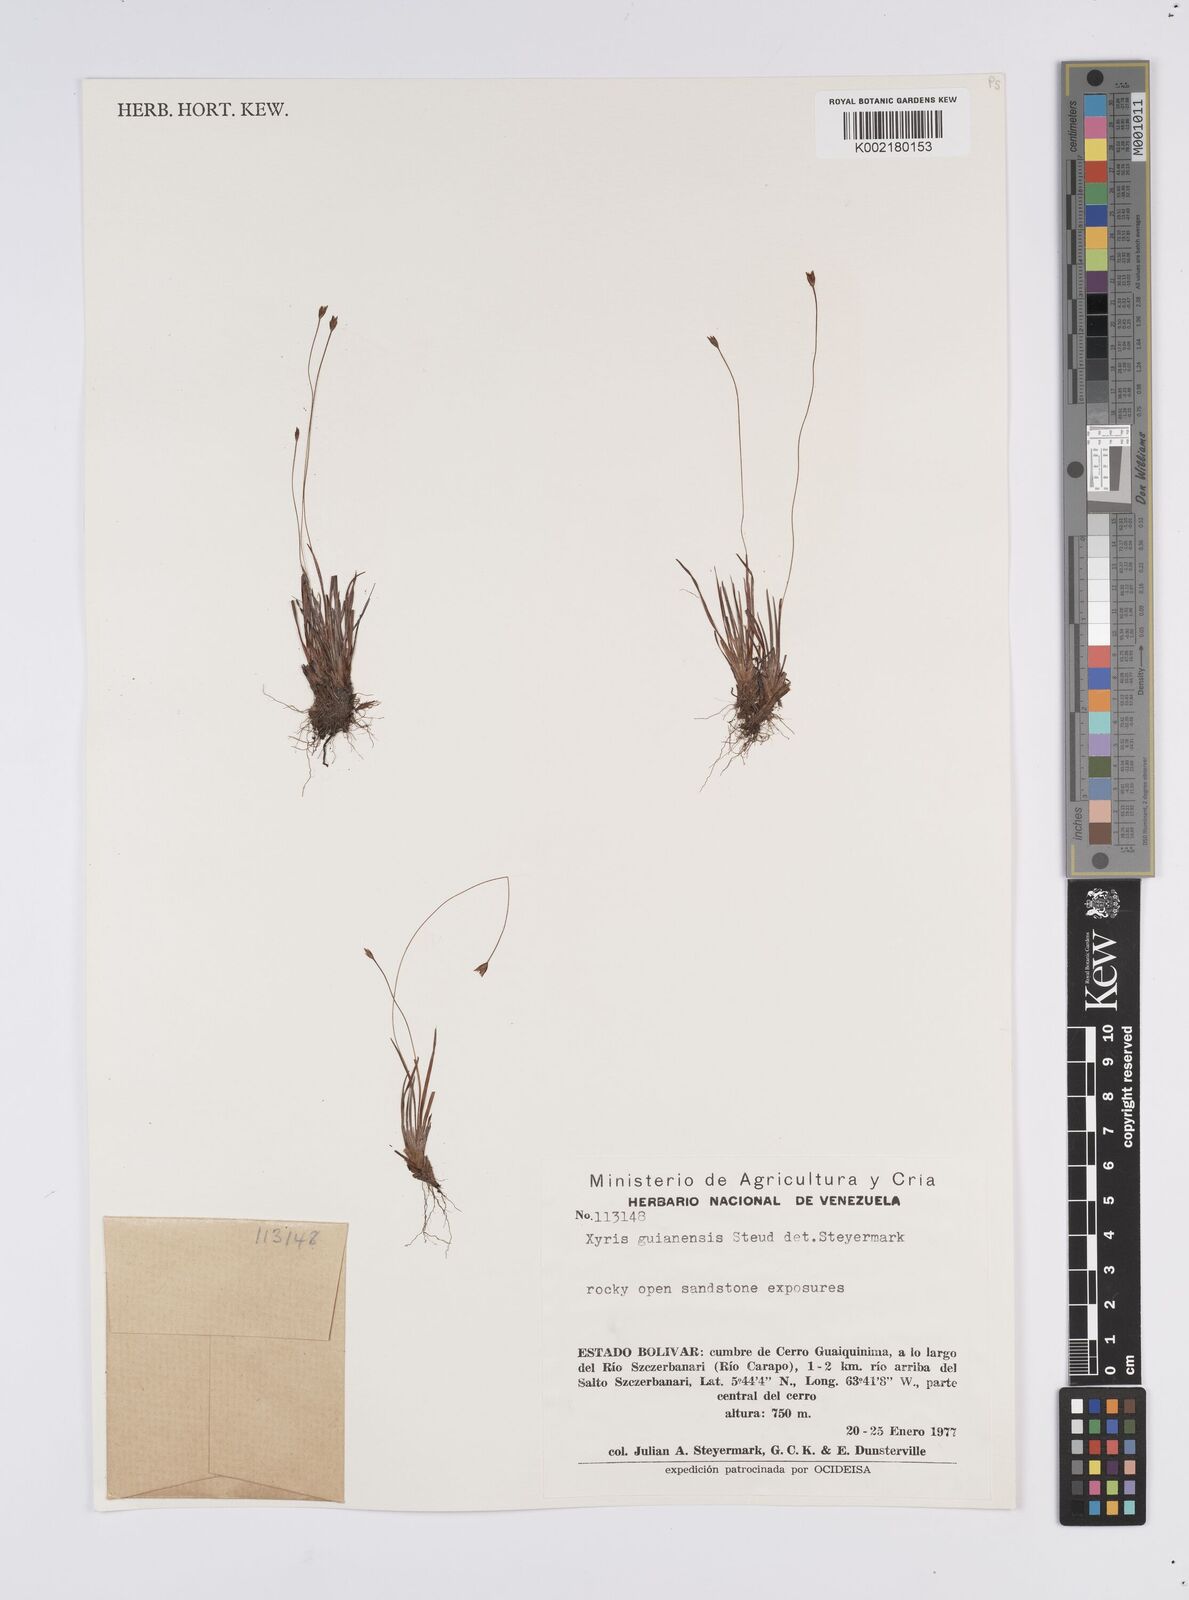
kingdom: Plantae
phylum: Tracheophyta
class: Liliopsida
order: Poales
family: Xyridaceae
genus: Xyris
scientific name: Xyris jupicai
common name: Richard's yelloweyed grass
